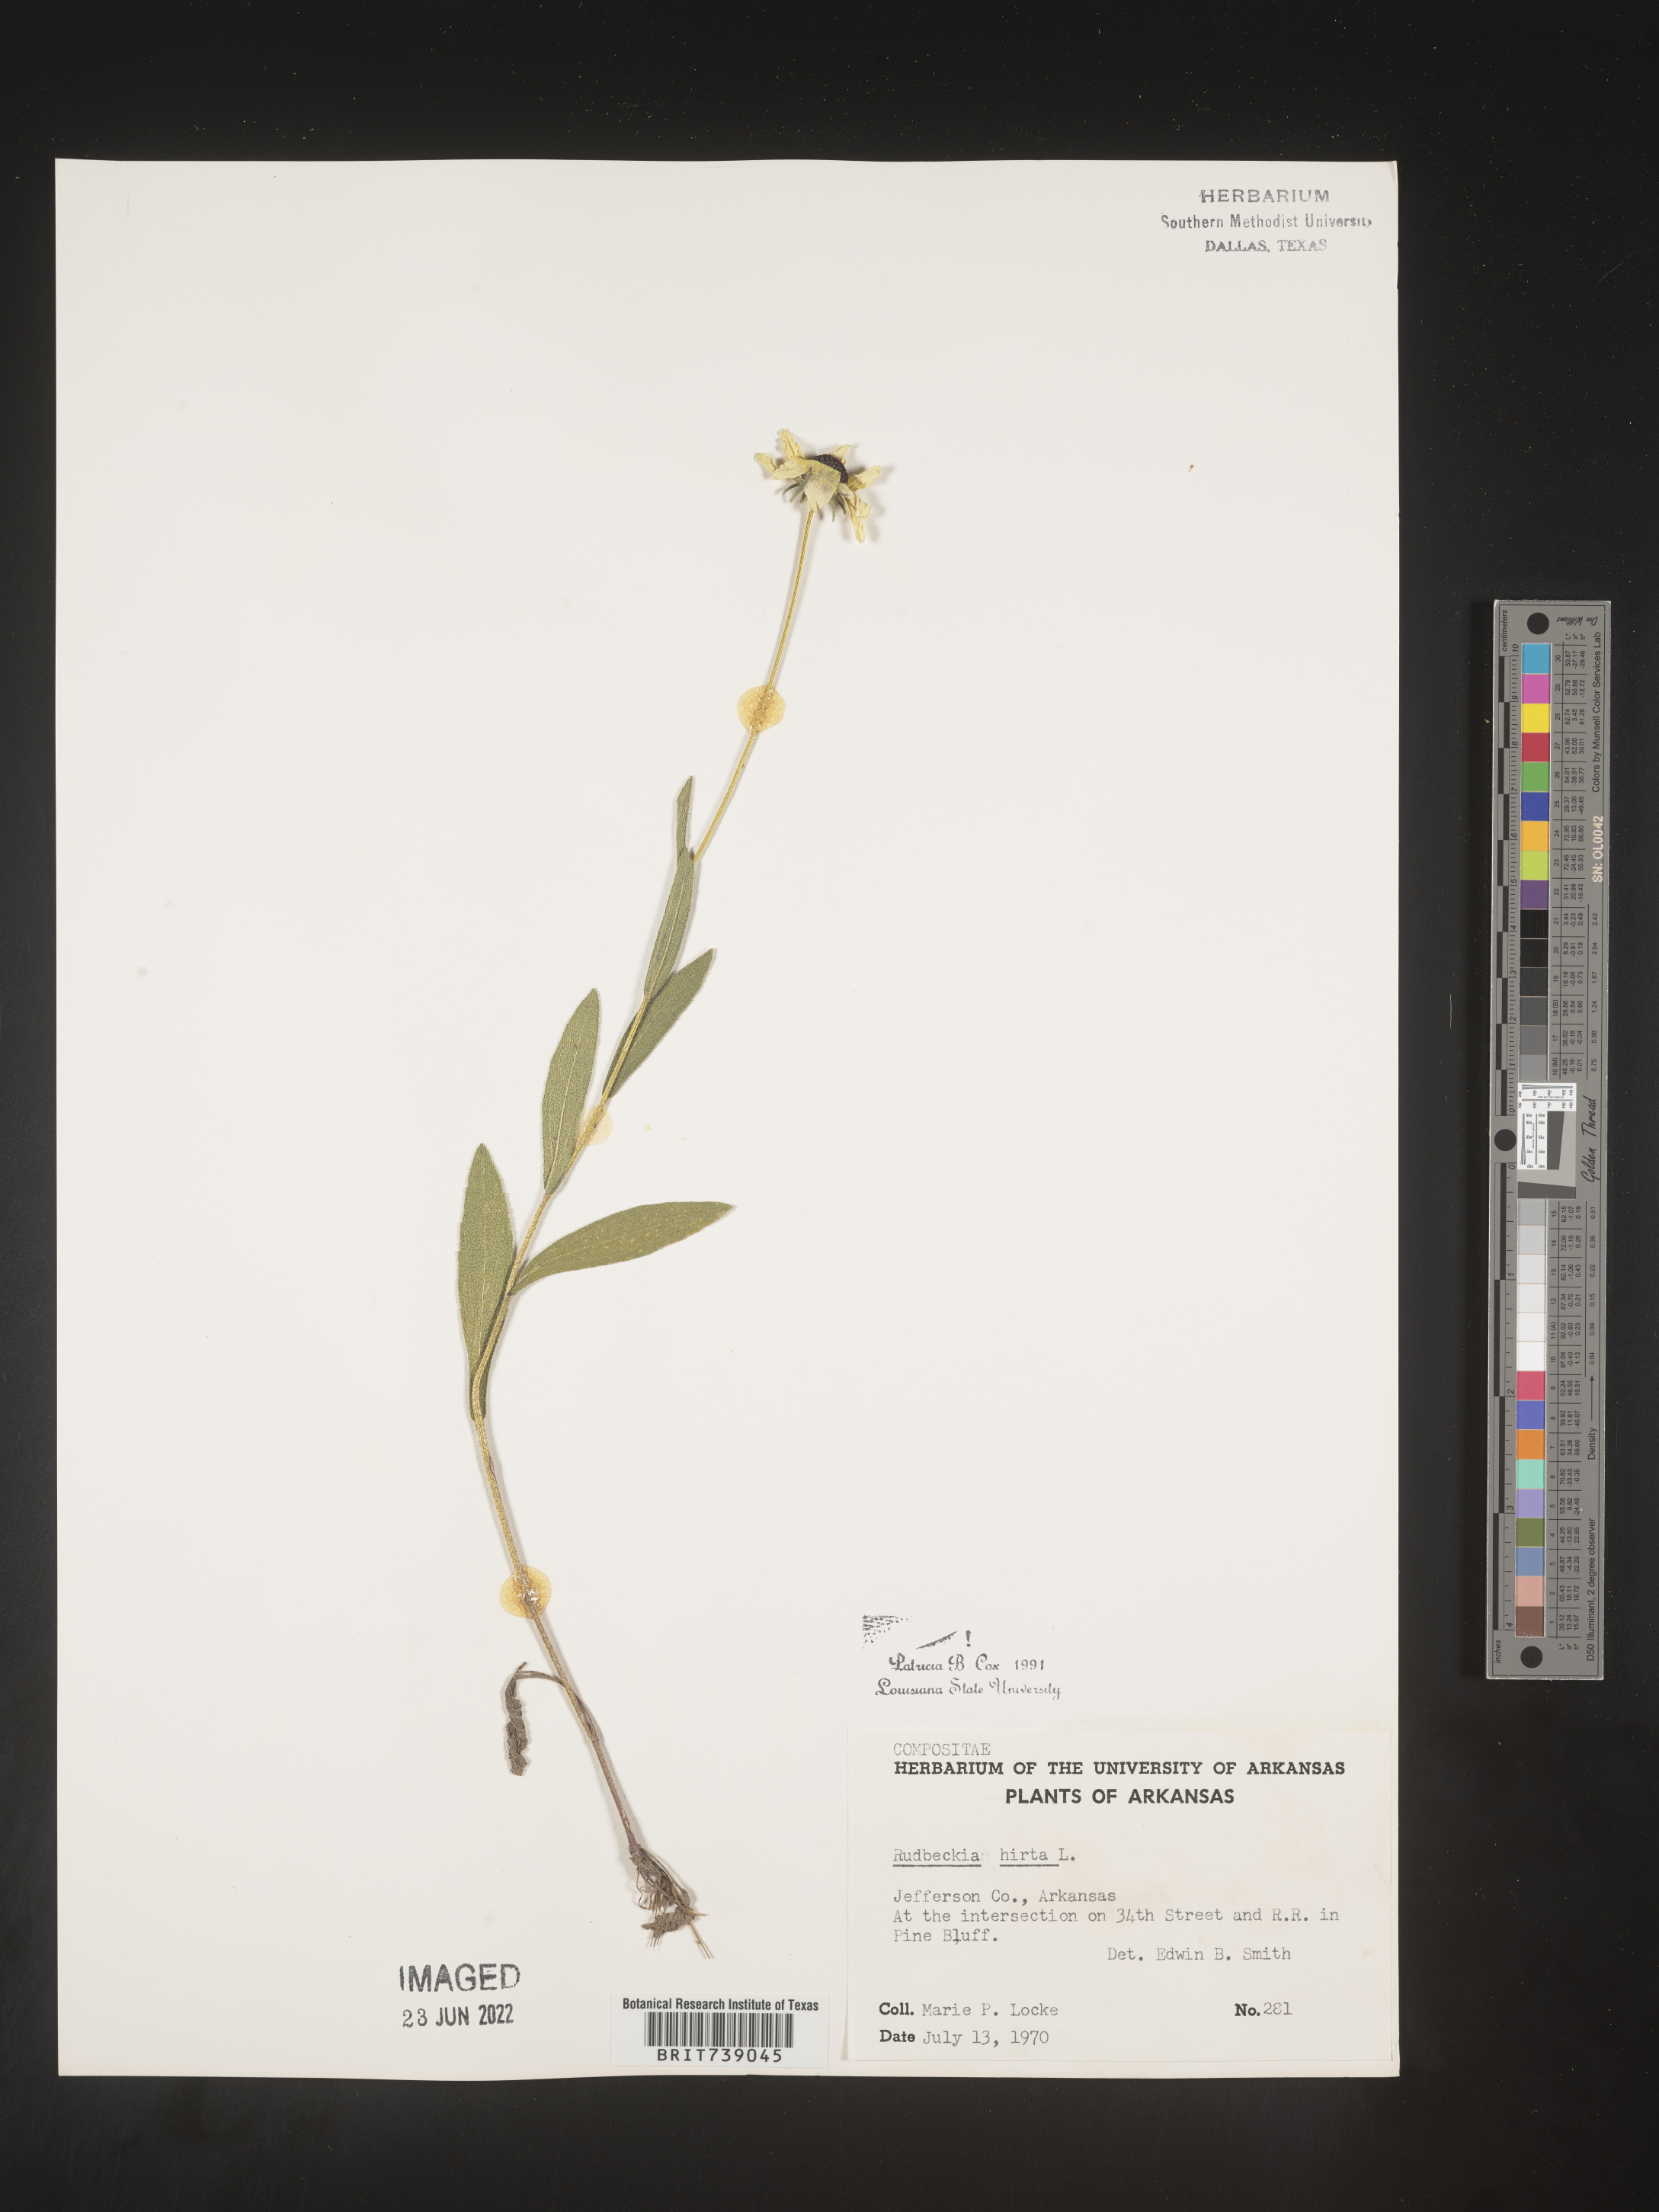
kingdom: Plantae
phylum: Tracheophyta
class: Magnoliopsida
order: Asterales
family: Asteraceae
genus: Rudbeckia
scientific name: Rudbeckia hirta
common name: Black-eyed-susan
